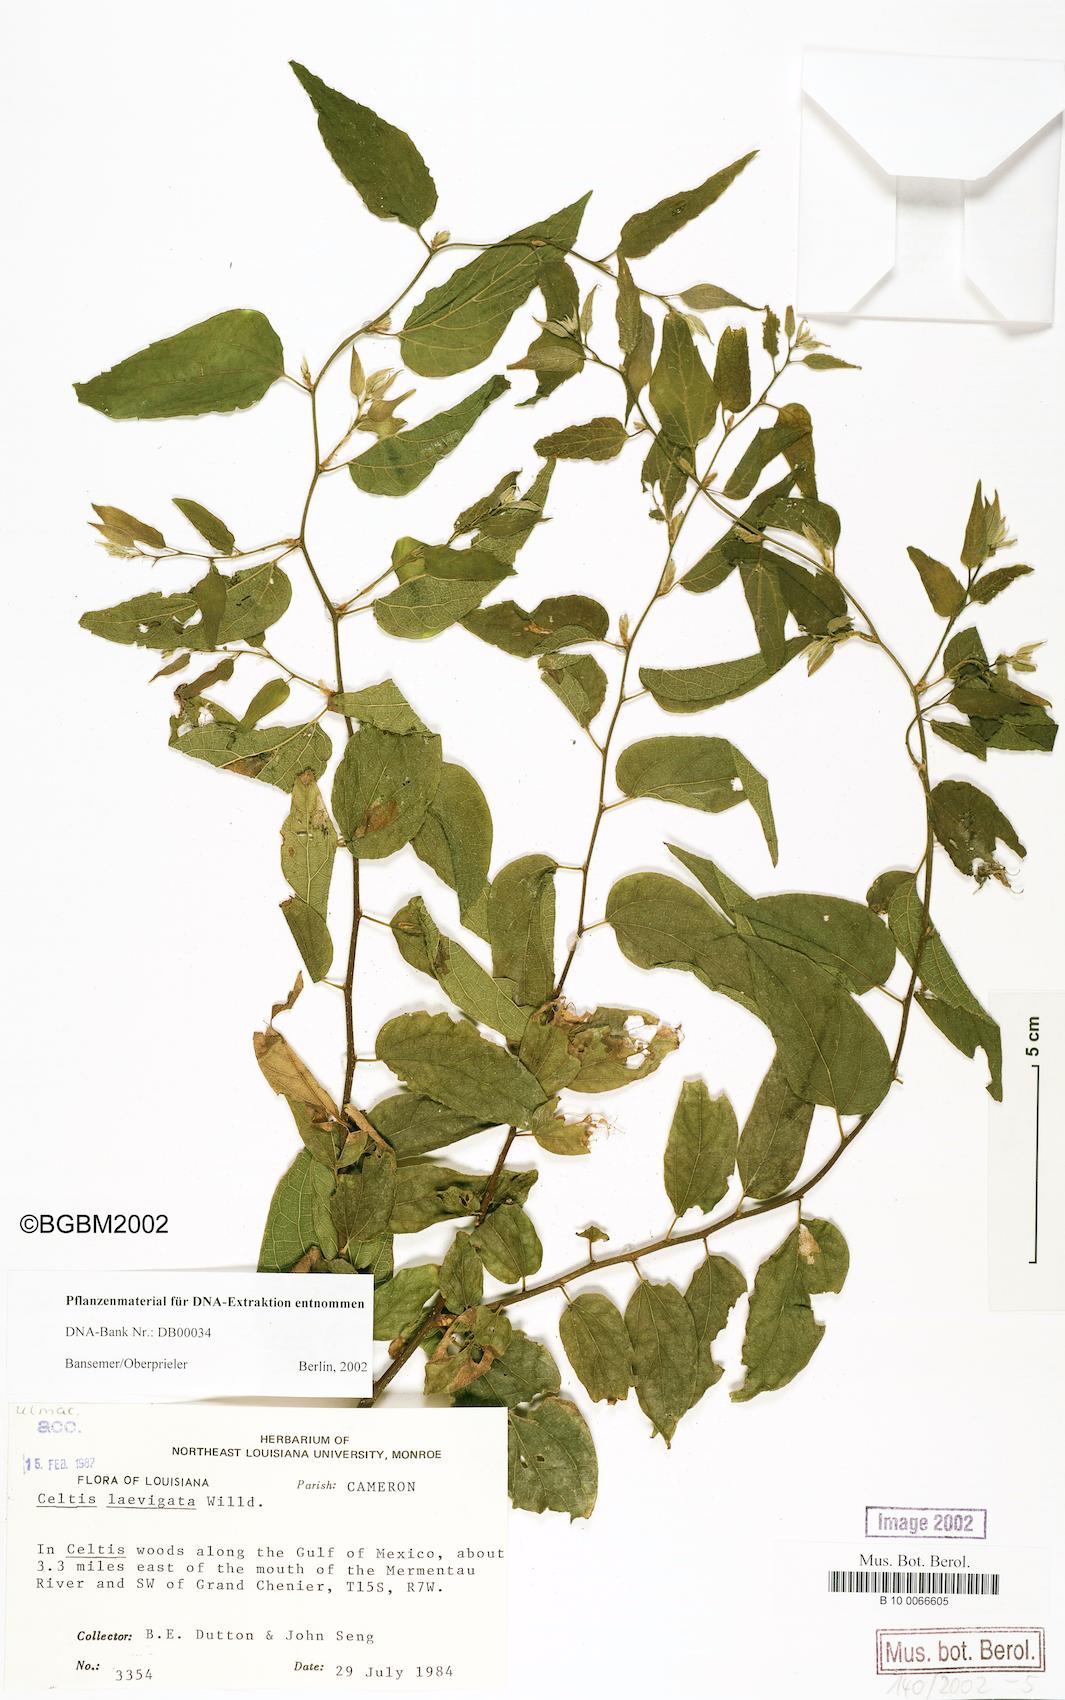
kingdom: Plantae
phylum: Tracheophyta
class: Magnoliopsida
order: Rosales
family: Cannabaceae
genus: Celtis
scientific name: Celtis laevigata
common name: Sugarberry
